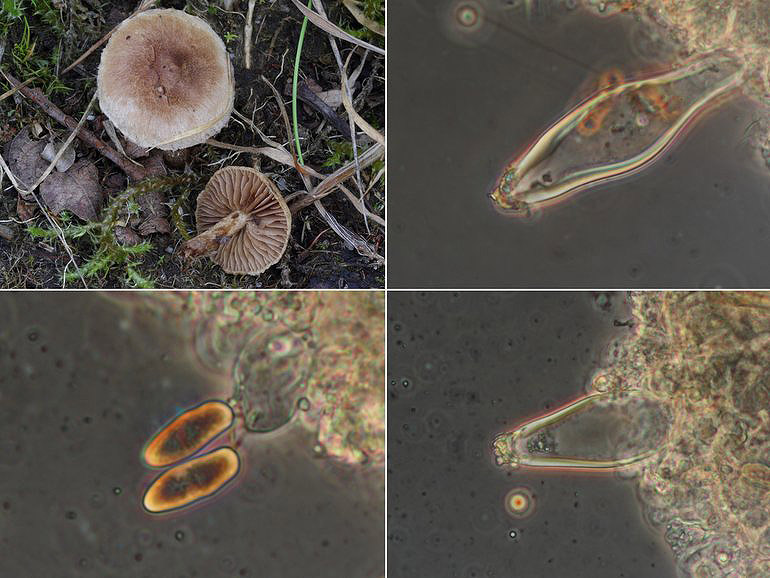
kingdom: Fungi
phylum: Basidiomycota
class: Agaricomycetes
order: Agaricales
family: Inocybaceae
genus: Inocybe
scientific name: Inocybe lacera
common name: laset trævlhat
